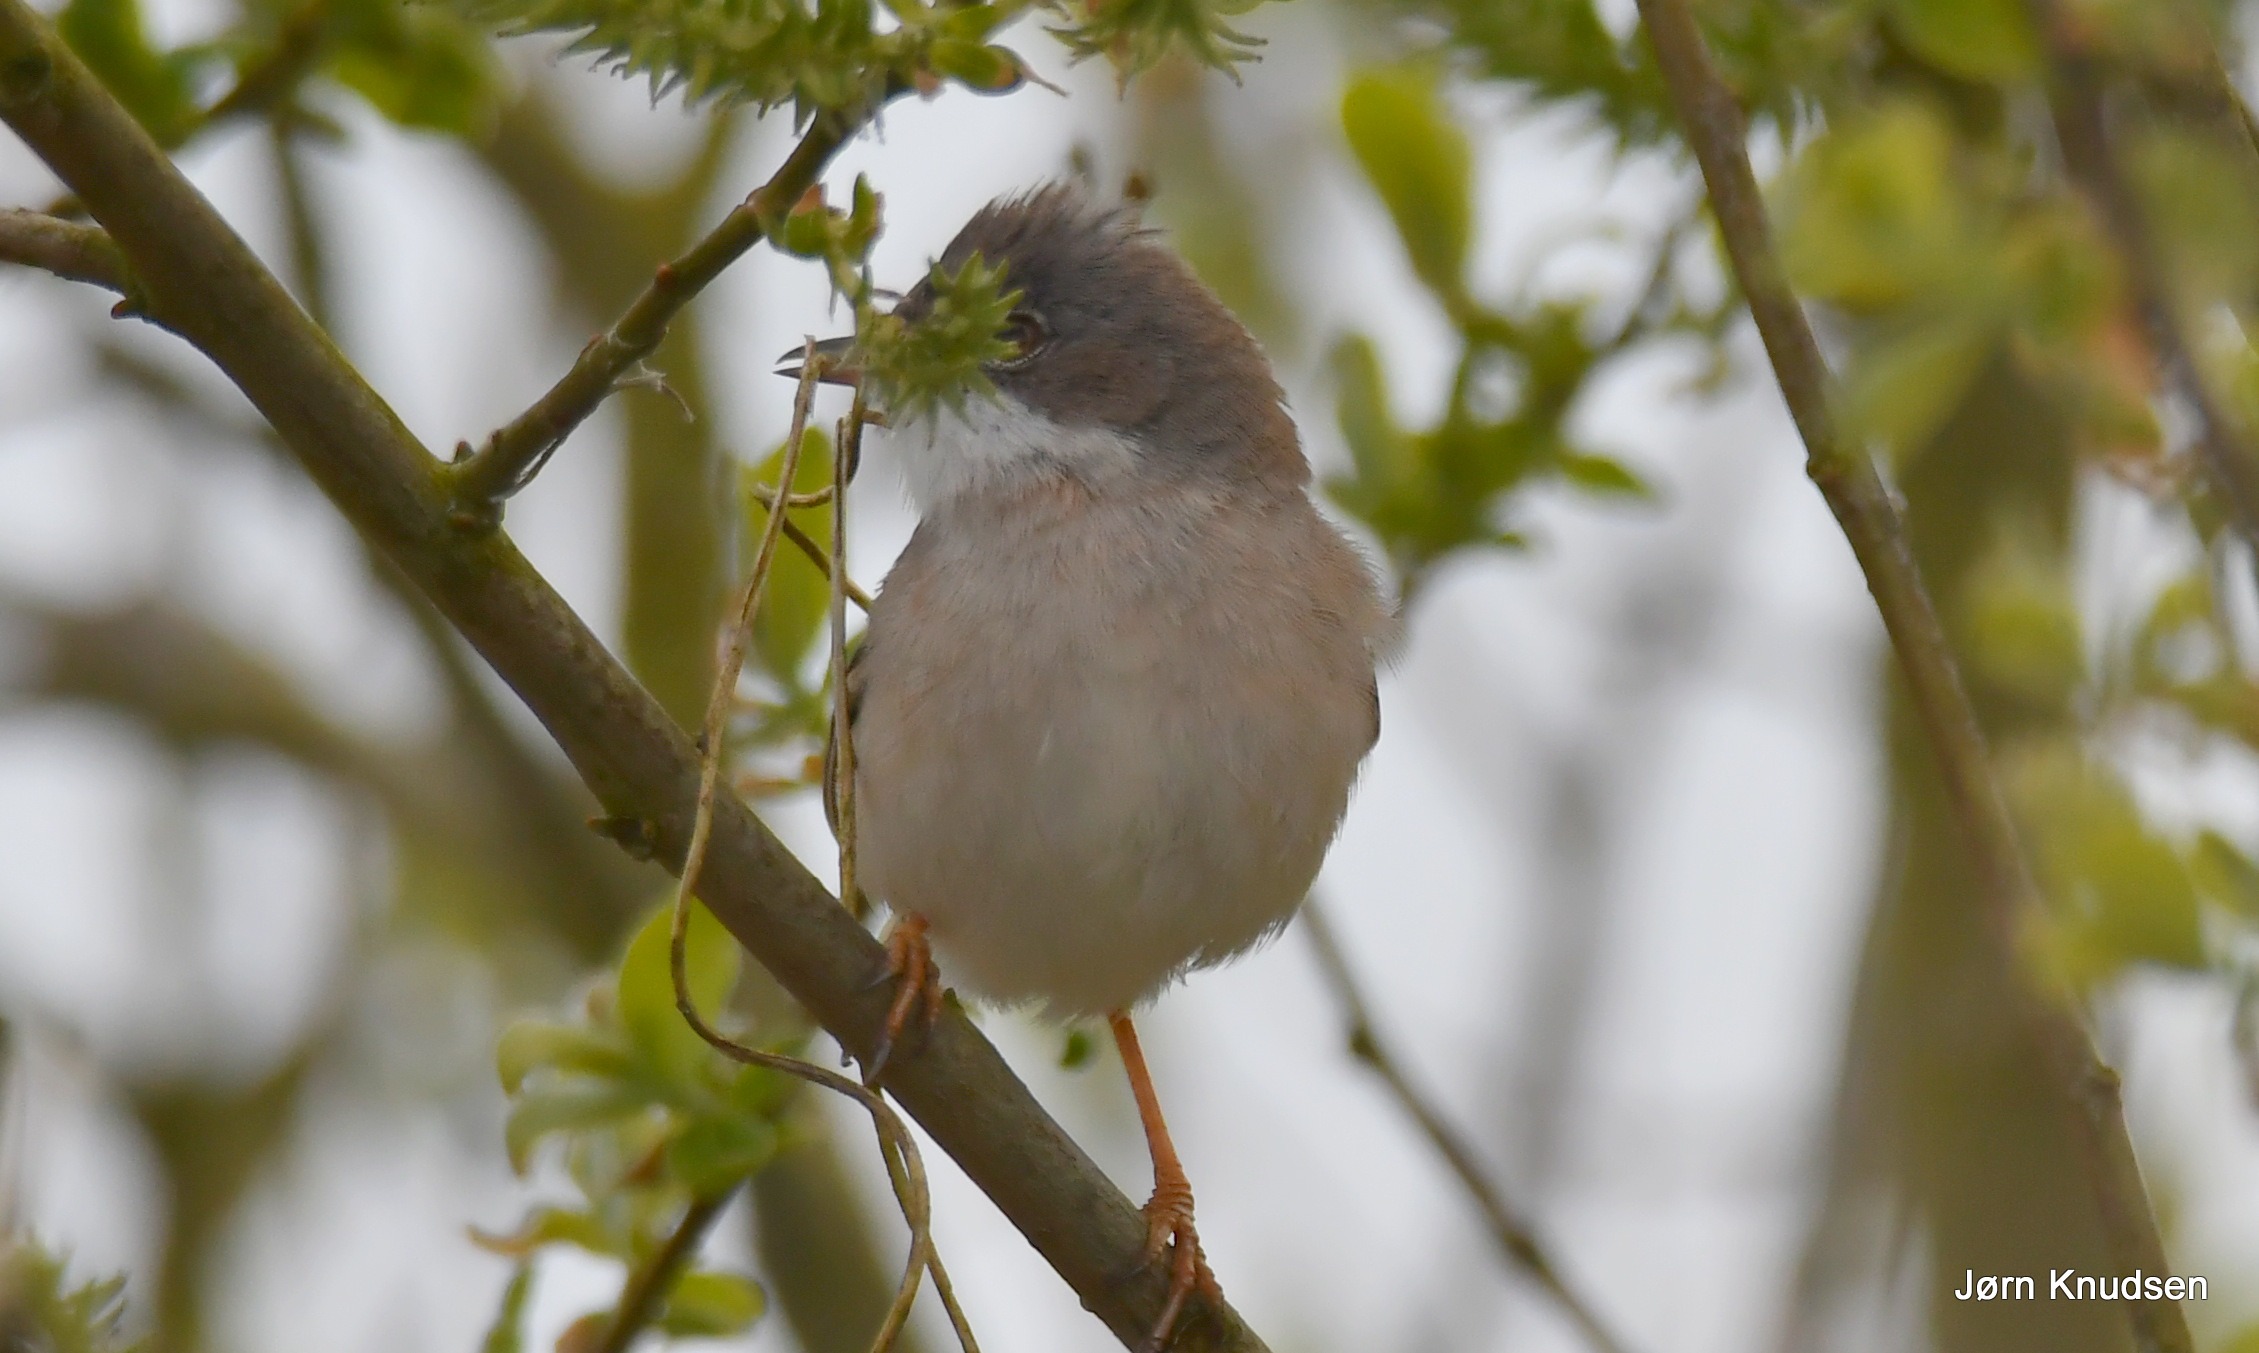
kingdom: Animalia
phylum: Chordata
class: Aves
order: Passeriformes
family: Sylviidae
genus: Sylvia
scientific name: Sylvia communis
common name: Tornsanger
